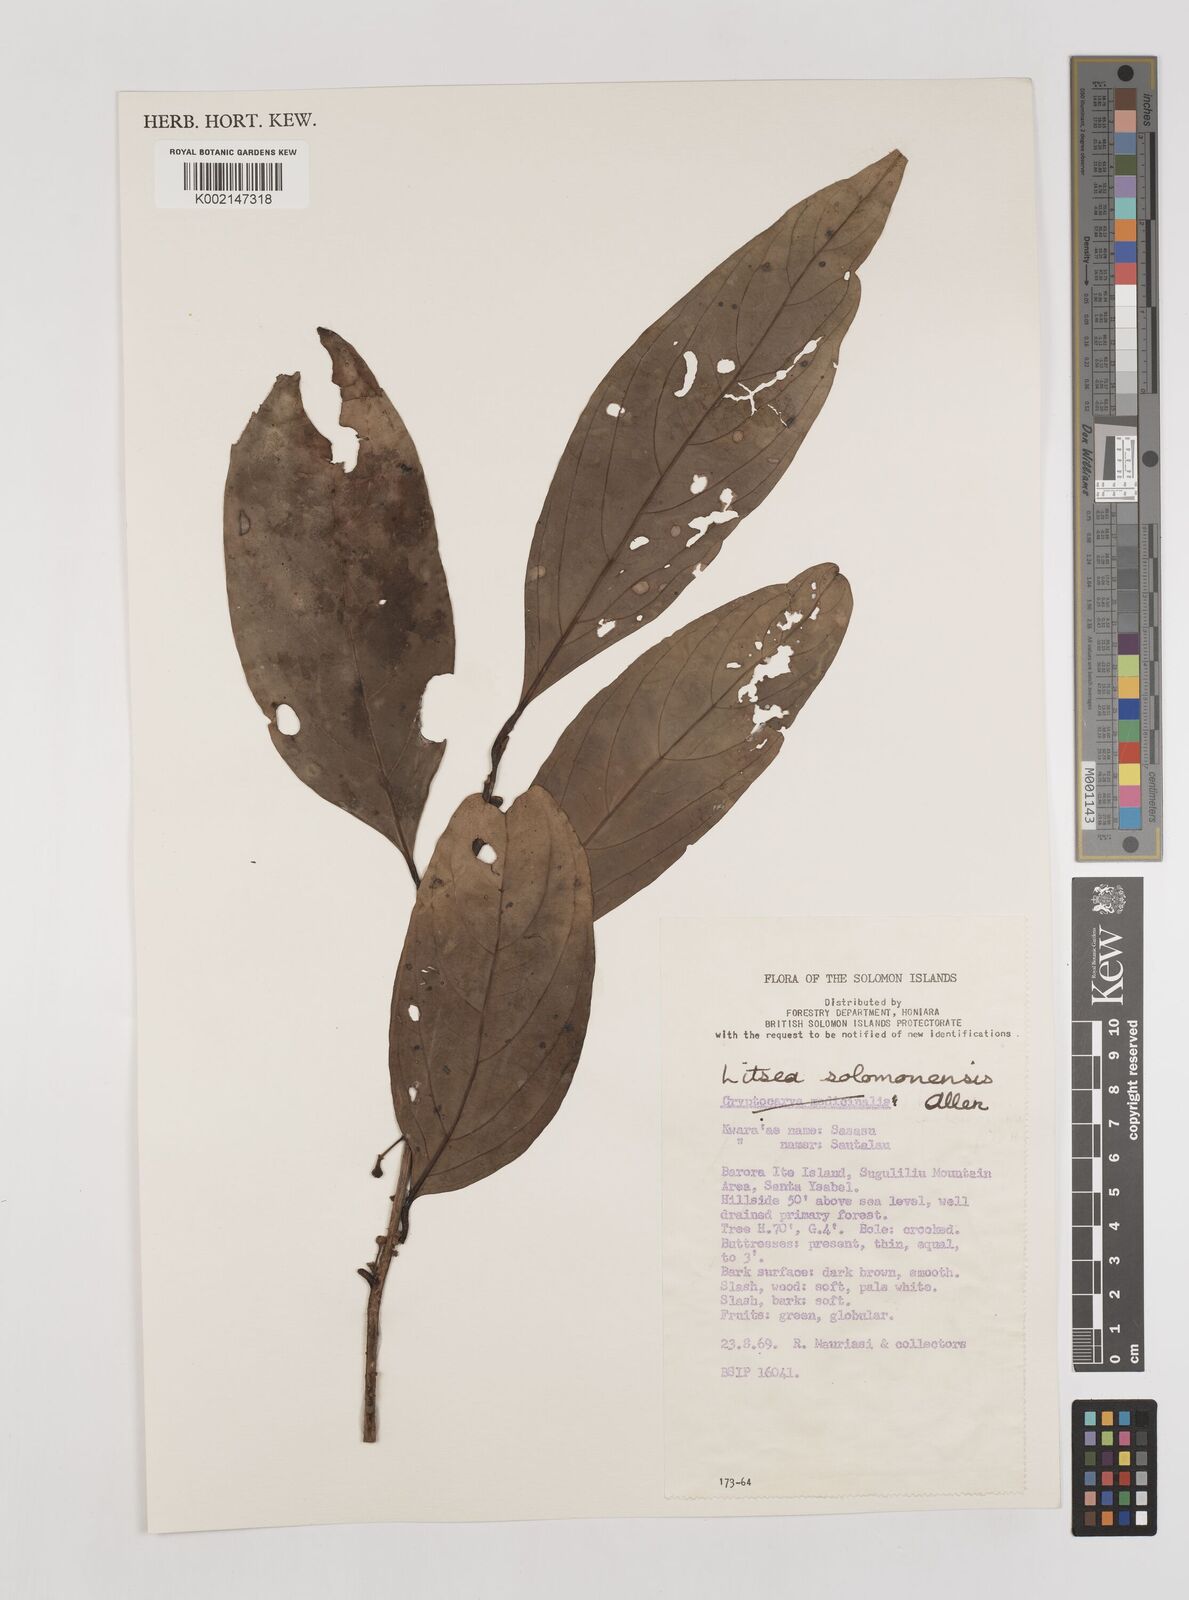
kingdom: Plantae
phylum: Tracheophyta
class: Magnoliopsida
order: Laurales
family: Lauraceae
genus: Litsea
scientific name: Litsea timoriana
